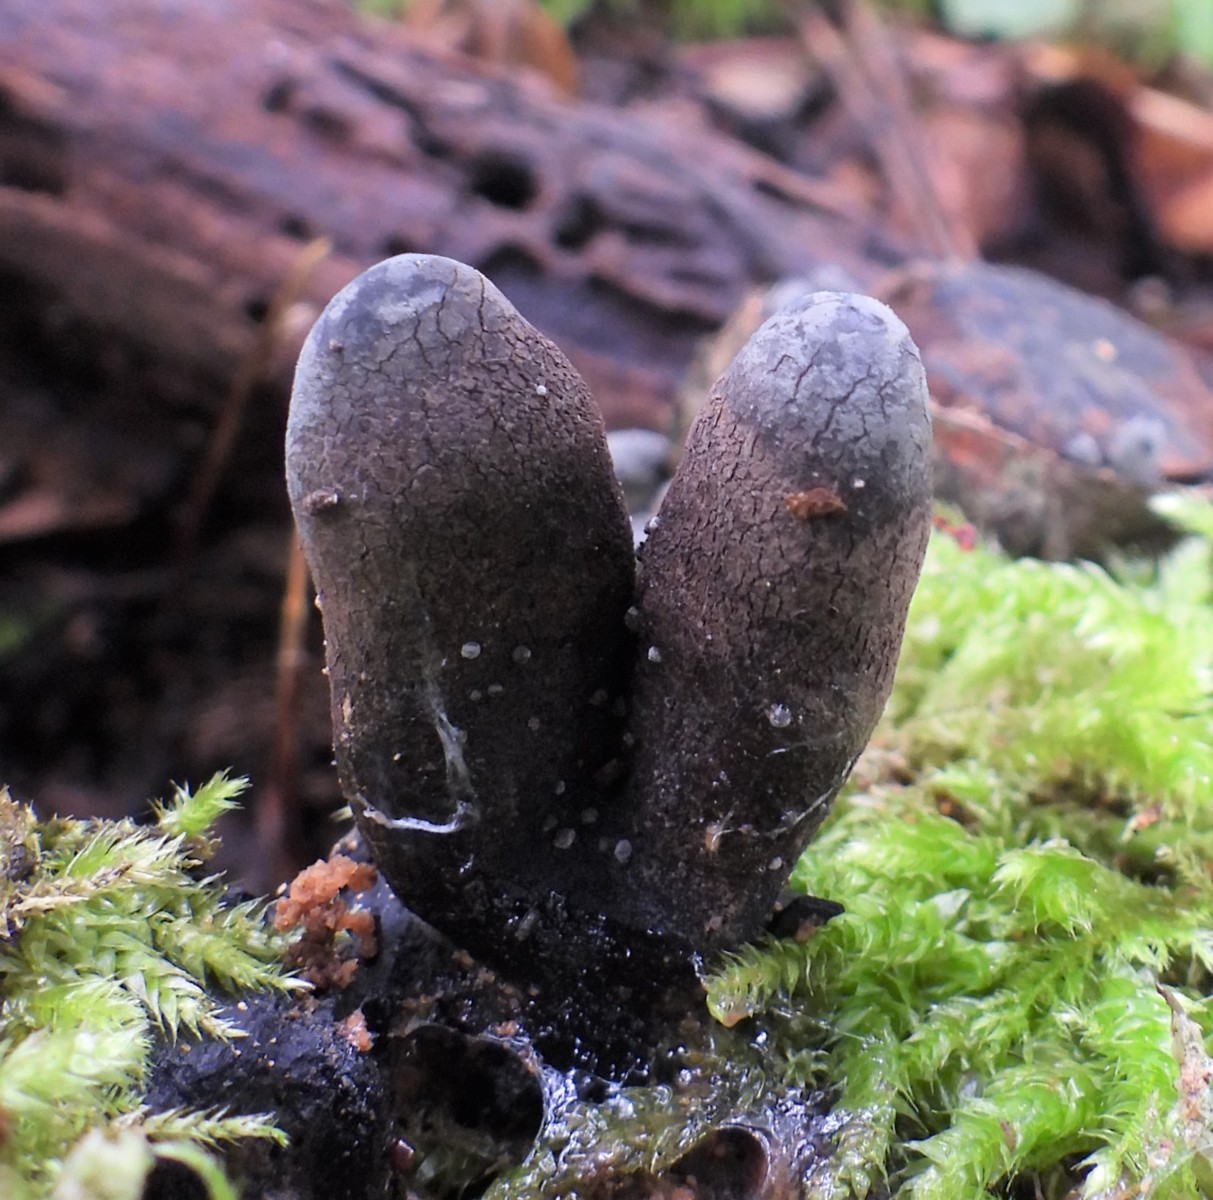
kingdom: Fungi
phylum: Ascomycota
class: Sordariomycetes
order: Xylariales
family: Xylariaceae
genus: Xylaria
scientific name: Xylaria polymorpha
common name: kølle-stødsvamp
